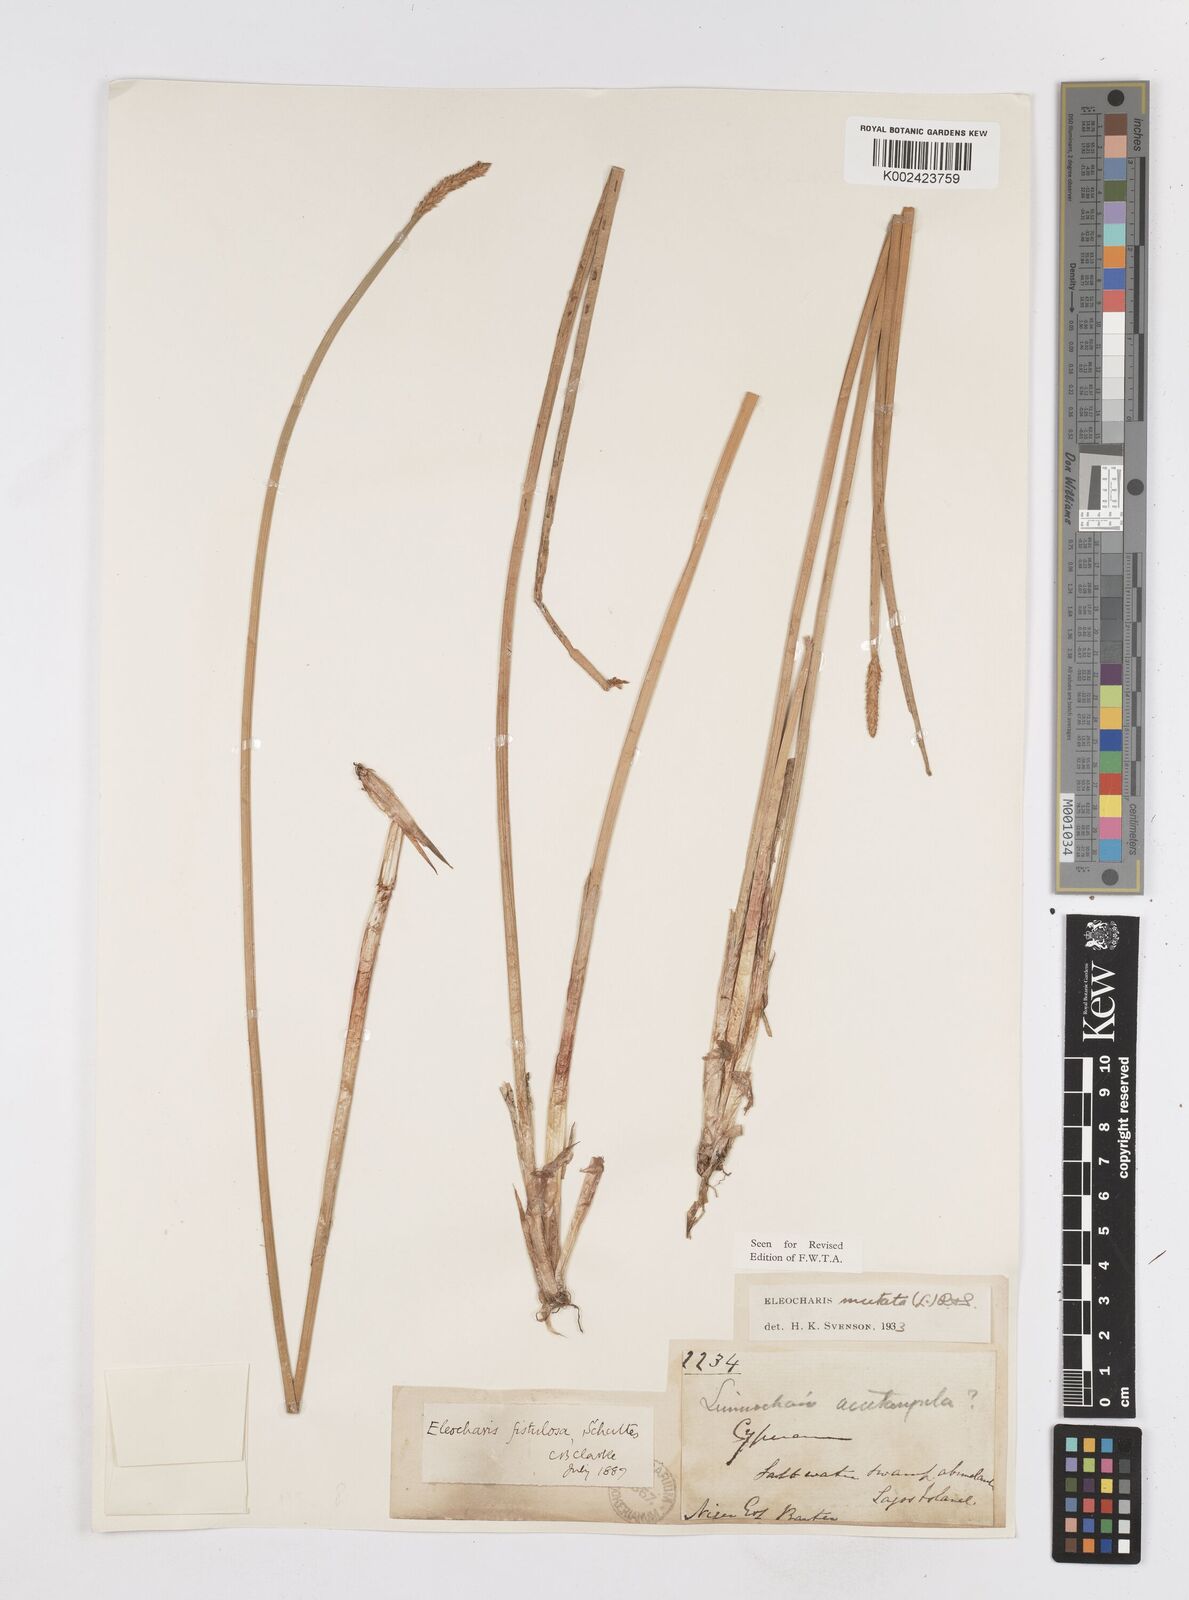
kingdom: Plantae
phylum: Tracheophyta
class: Liliopsida
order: Poales
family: Cyperaceae
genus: Eleocharis
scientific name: Eleocharis mutata
